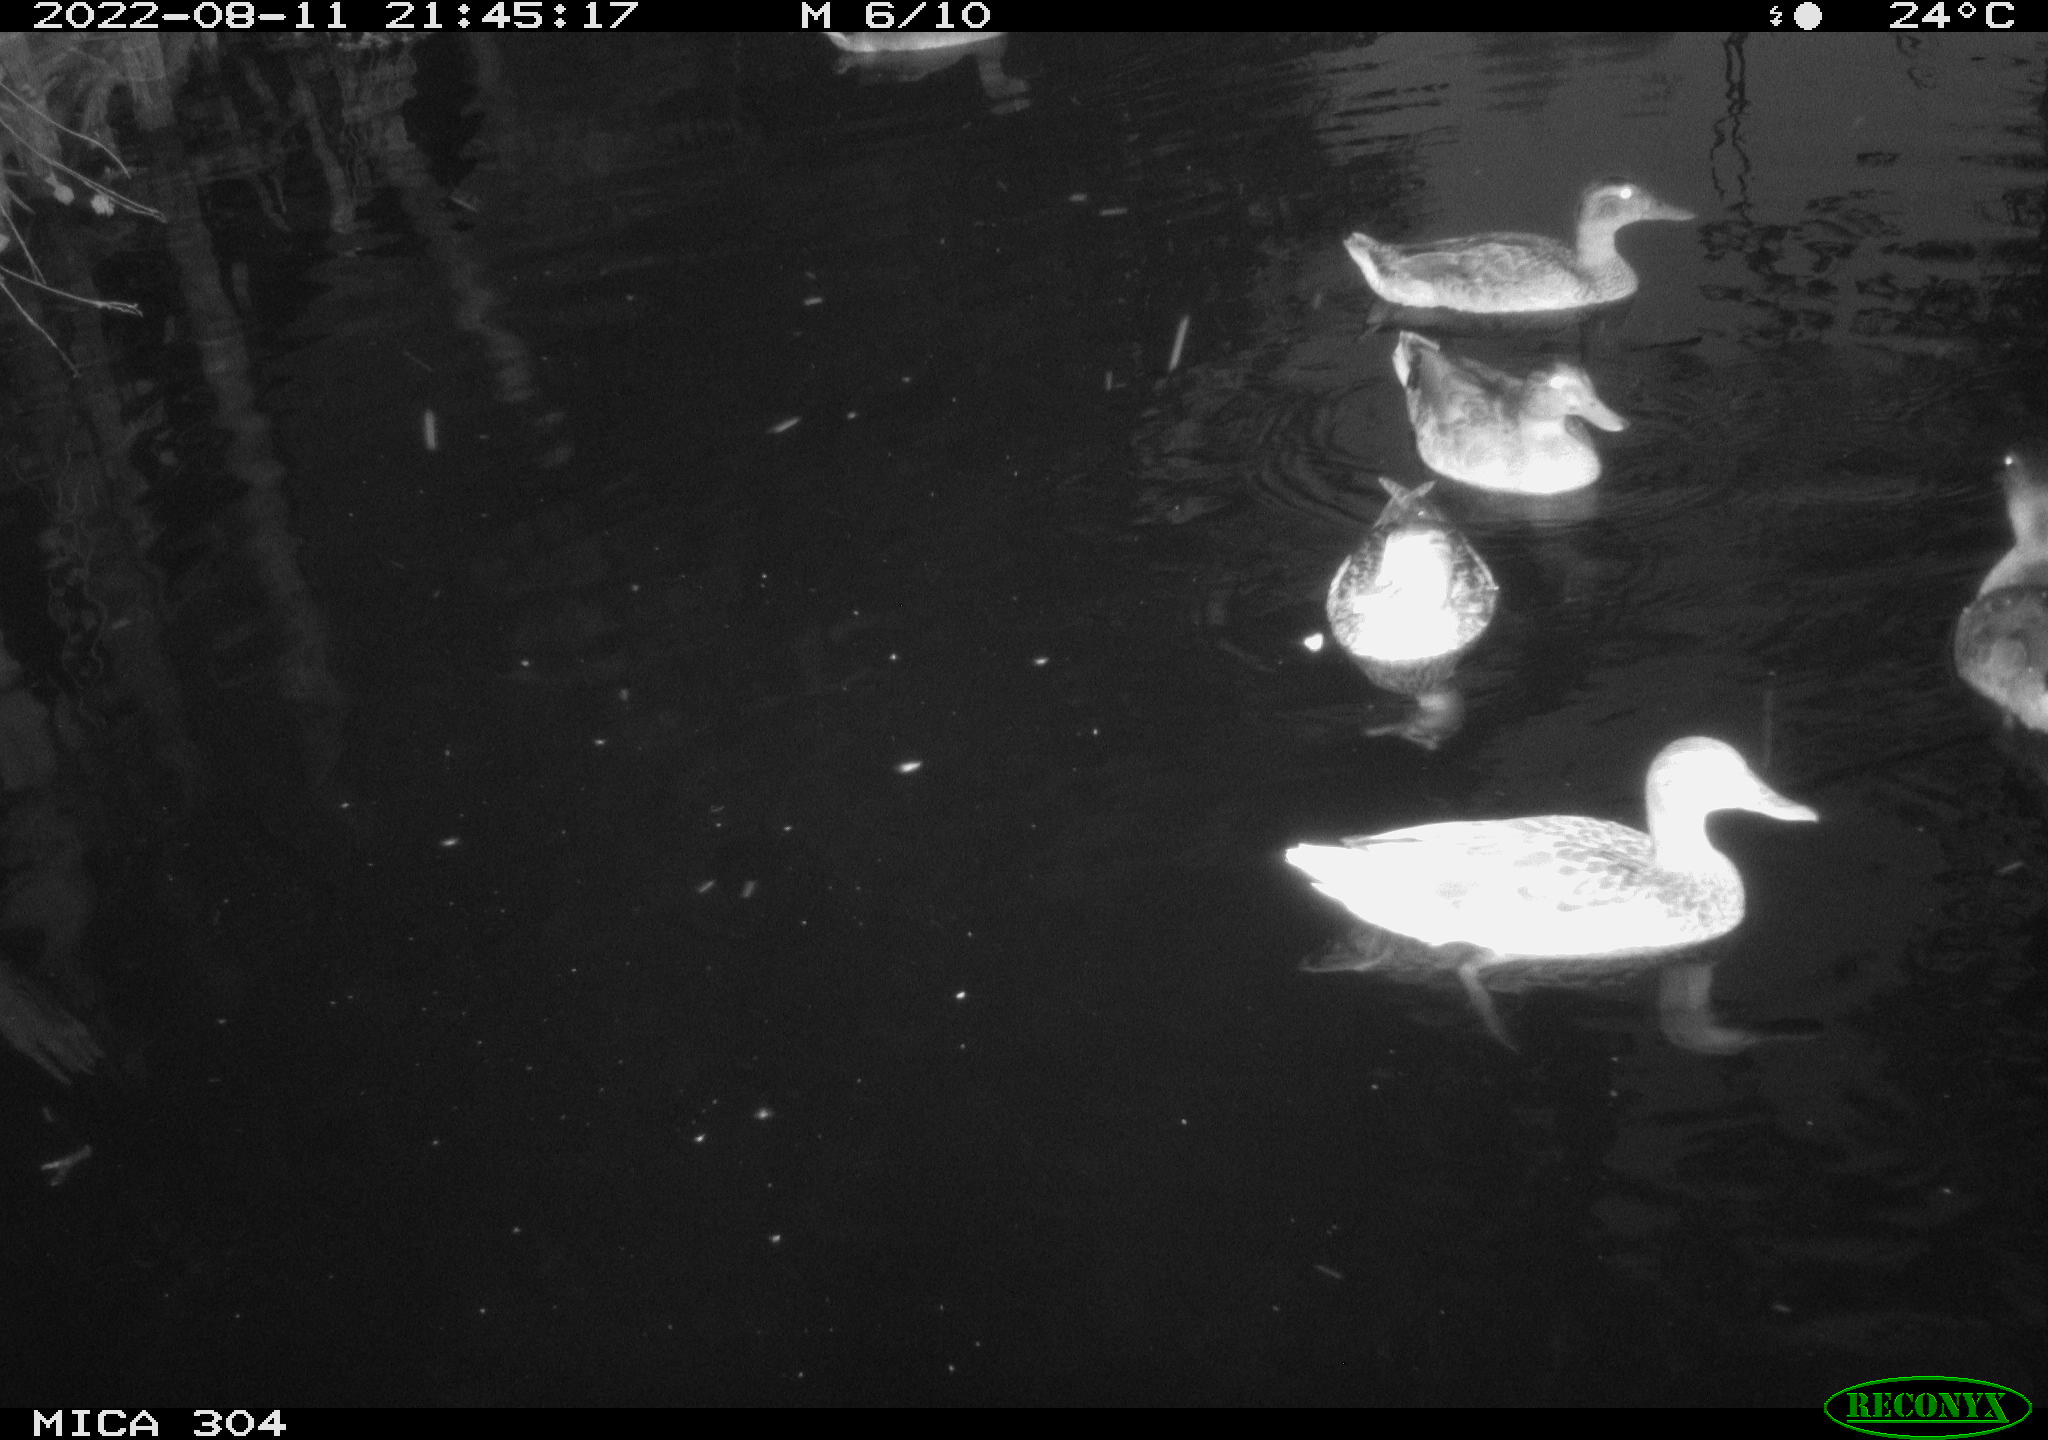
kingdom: Animalia
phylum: Chordata
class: Aves
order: Anseriformes
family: Anatidae
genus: Anas
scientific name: Anas platyrhynchos
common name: Mallard
